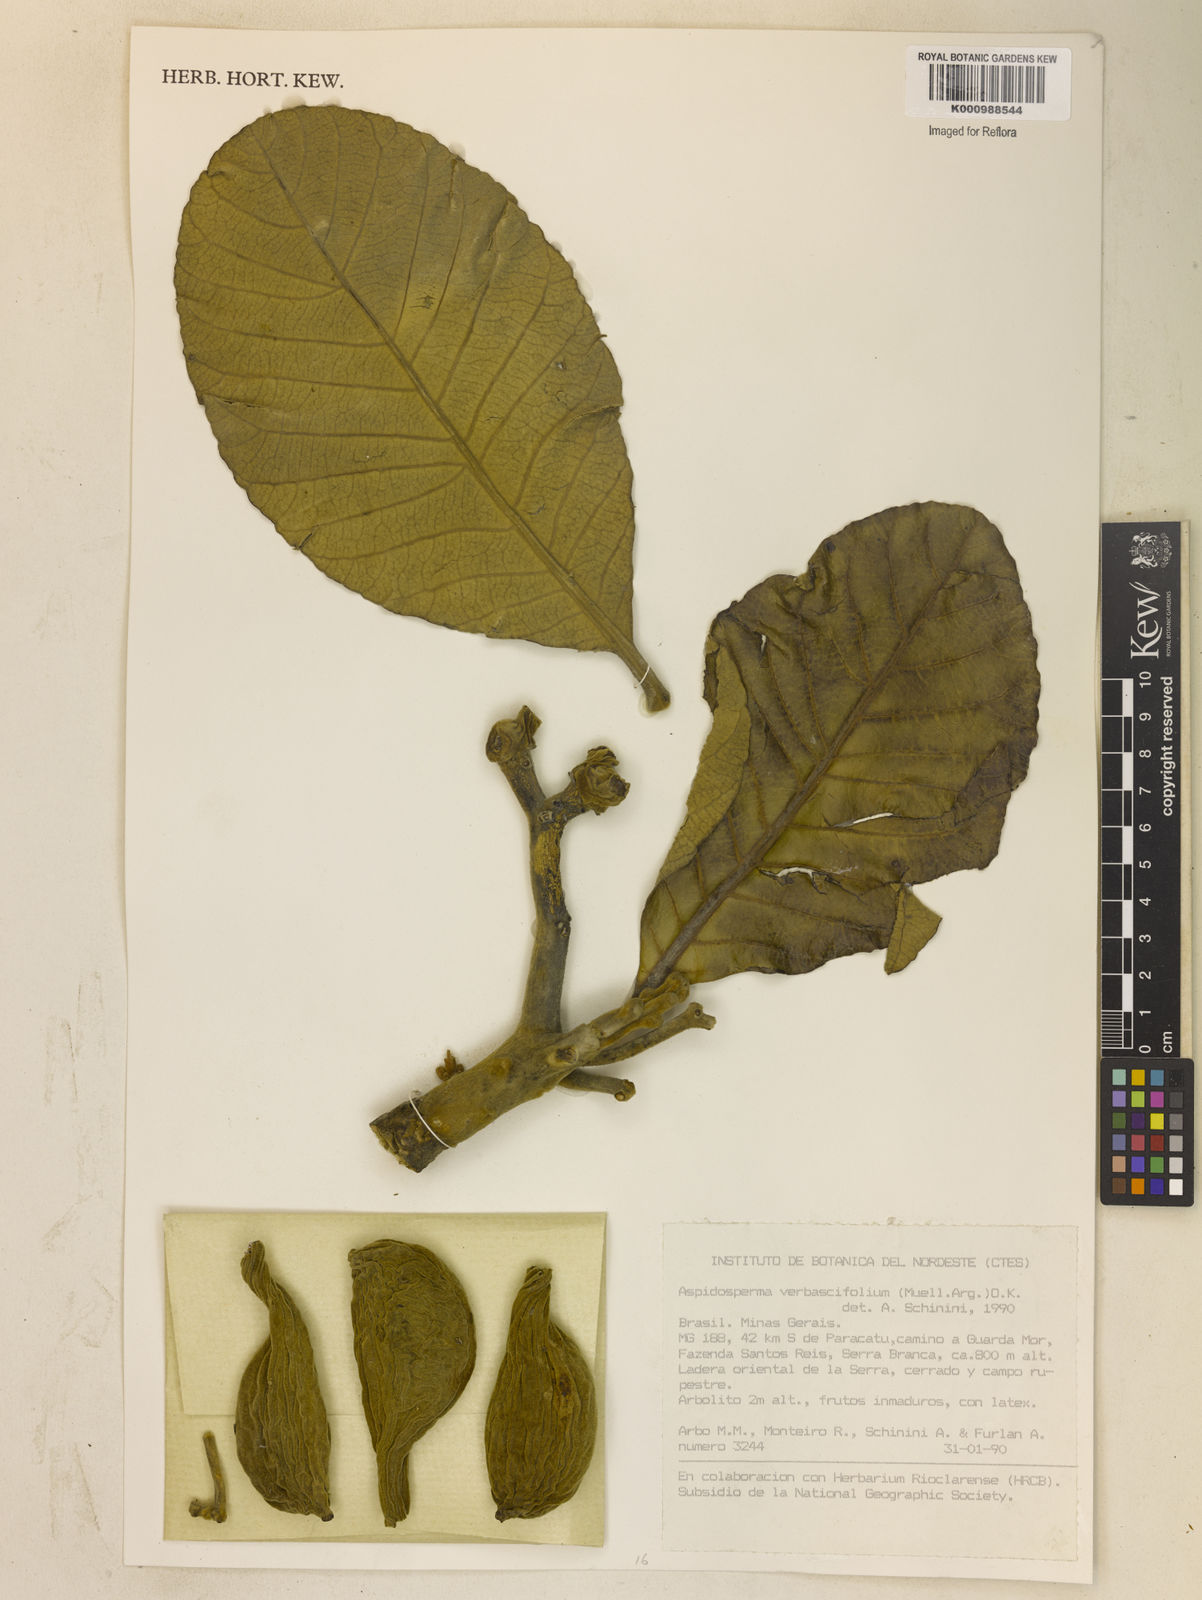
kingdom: Plantae
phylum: Tracheophyta
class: Magnoliopsida
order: Gentianales
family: Apocynaceae
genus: Aspidosperma
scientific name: Aspidosperma
